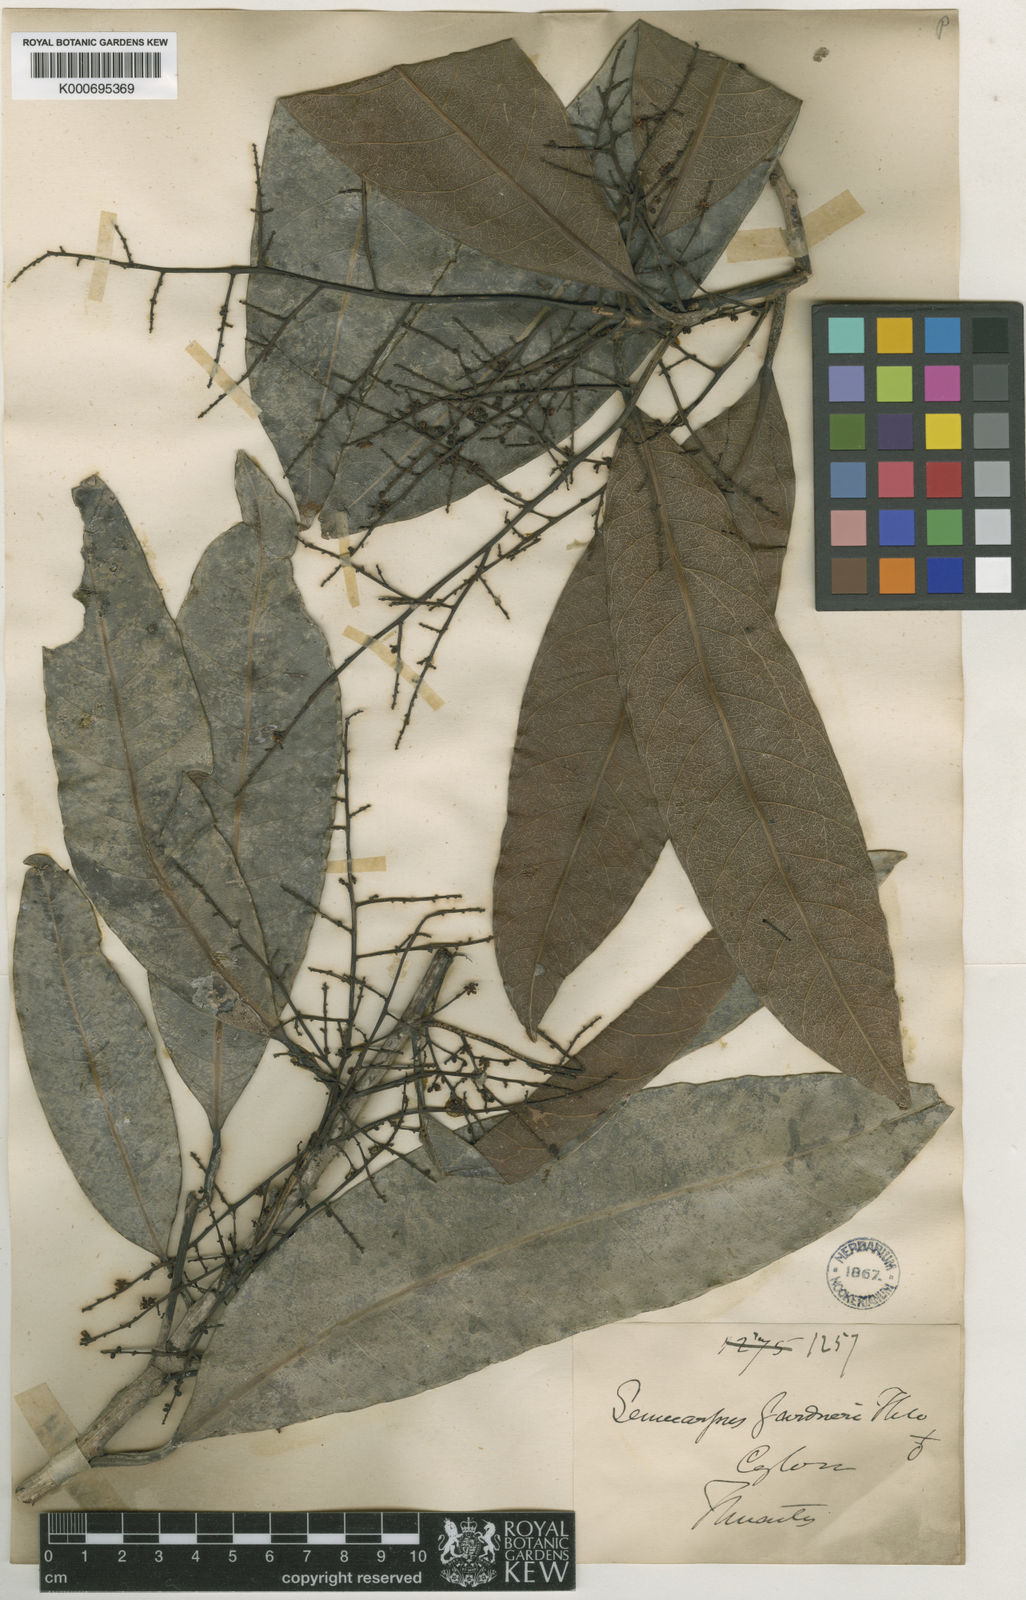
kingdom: Plantae
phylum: Tracheophyta
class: Magnoliopsida
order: Sapindales
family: Anacardiaceae
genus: Semecarpus
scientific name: Semecarpus gardneri
